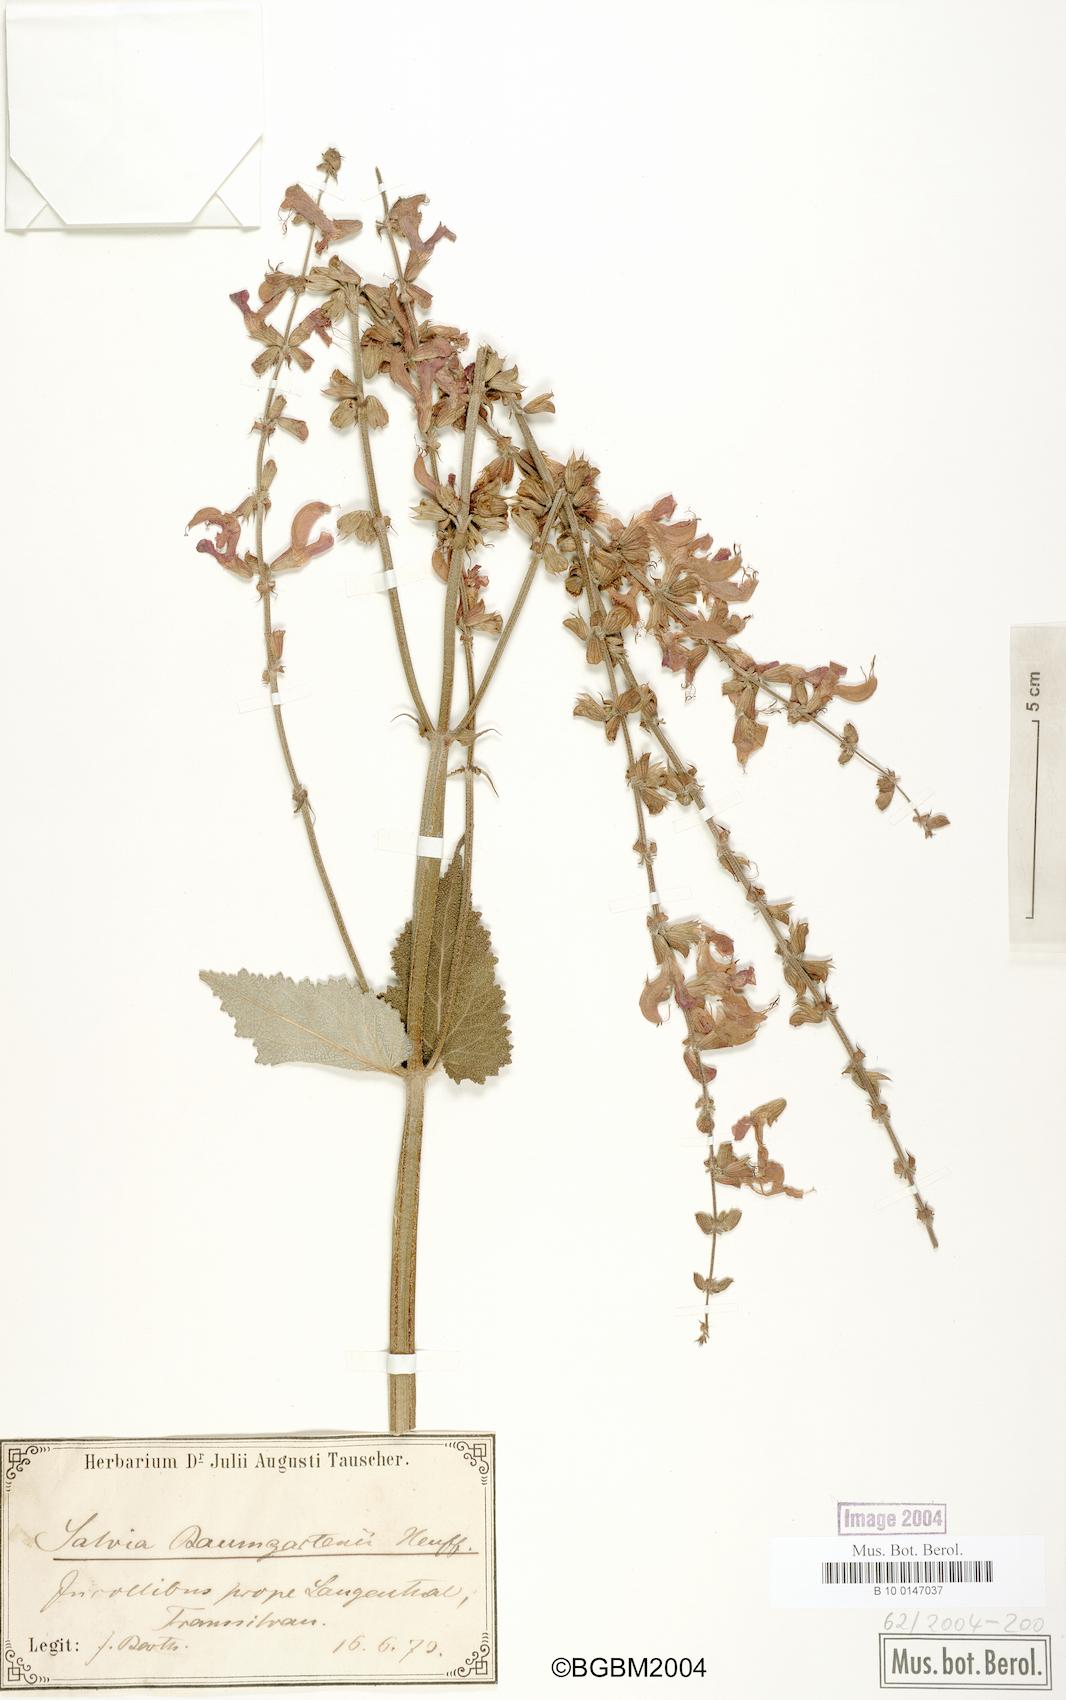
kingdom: Plantae
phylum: Tracheophyta
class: Magnoliopsida
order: Lamiales
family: Lamiaceae
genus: Salvia
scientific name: Salvia transsylvanica
